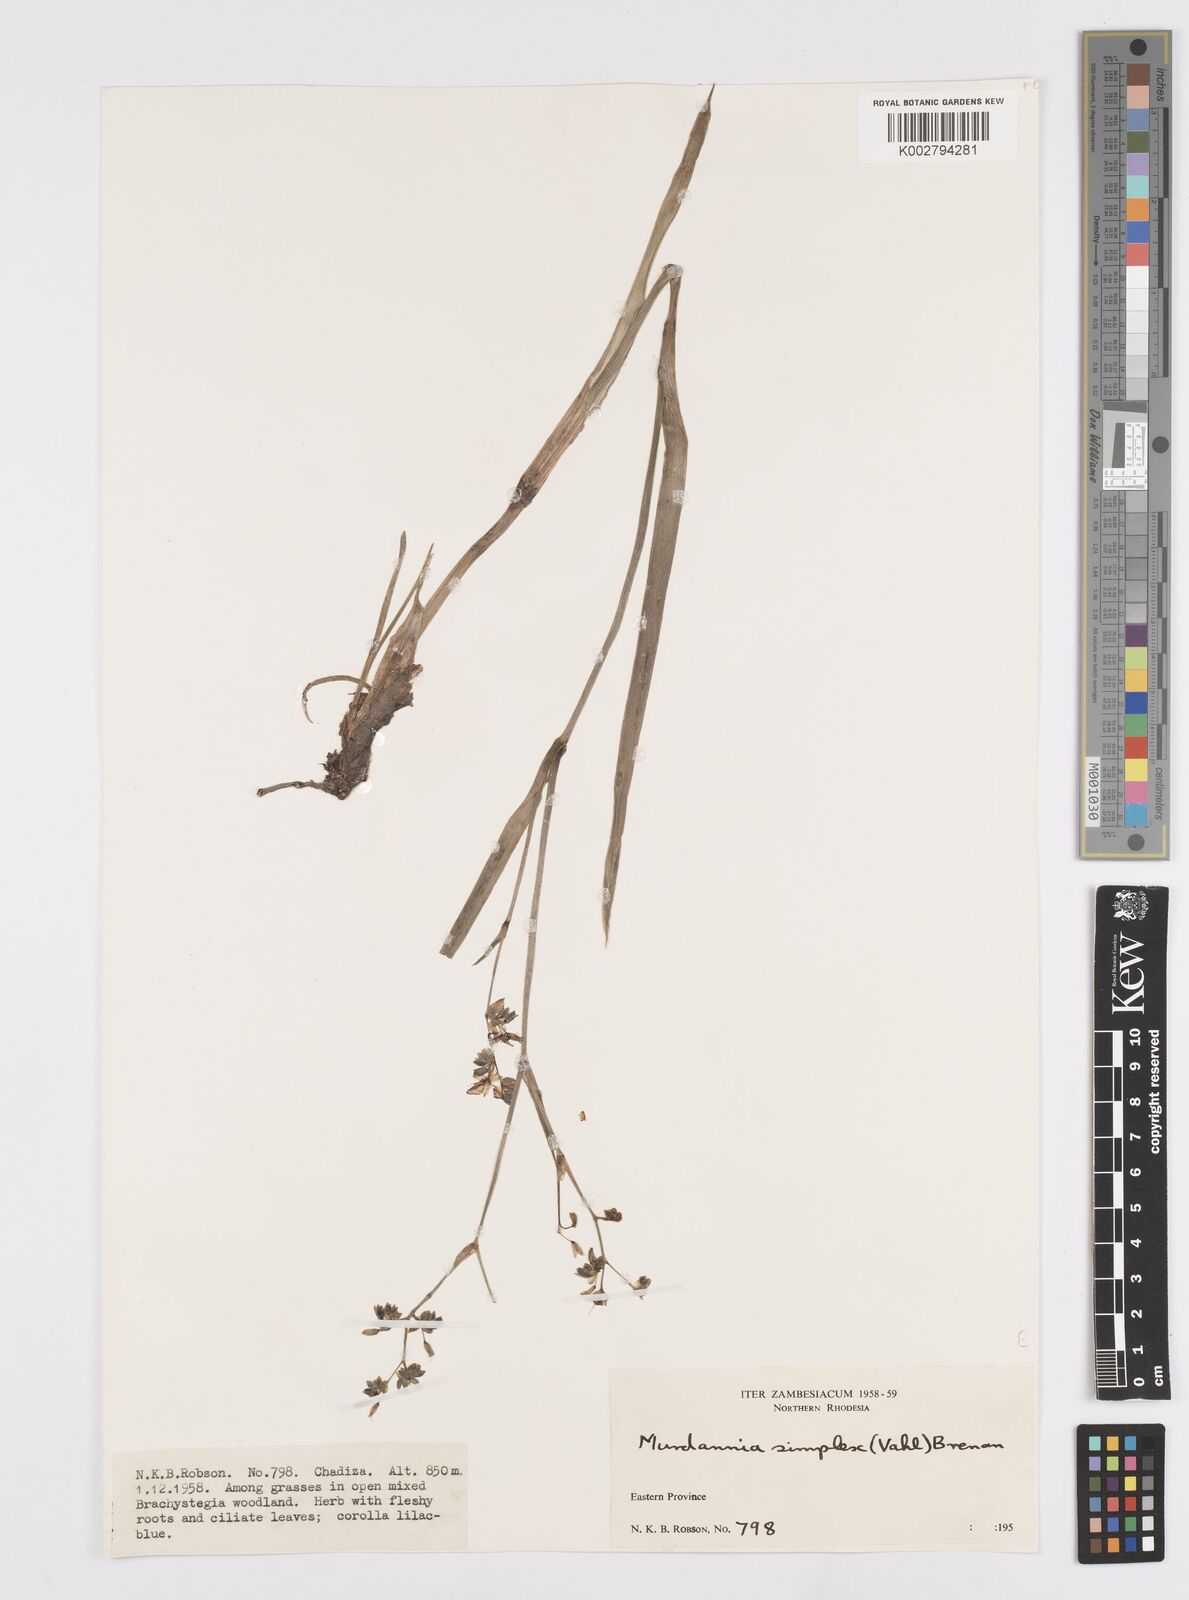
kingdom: Plantae
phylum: Tracheophyta
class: Liliopsida
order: Commelinales
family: Commelinaceae
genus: Murdannia
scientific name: Murdannia simplex
